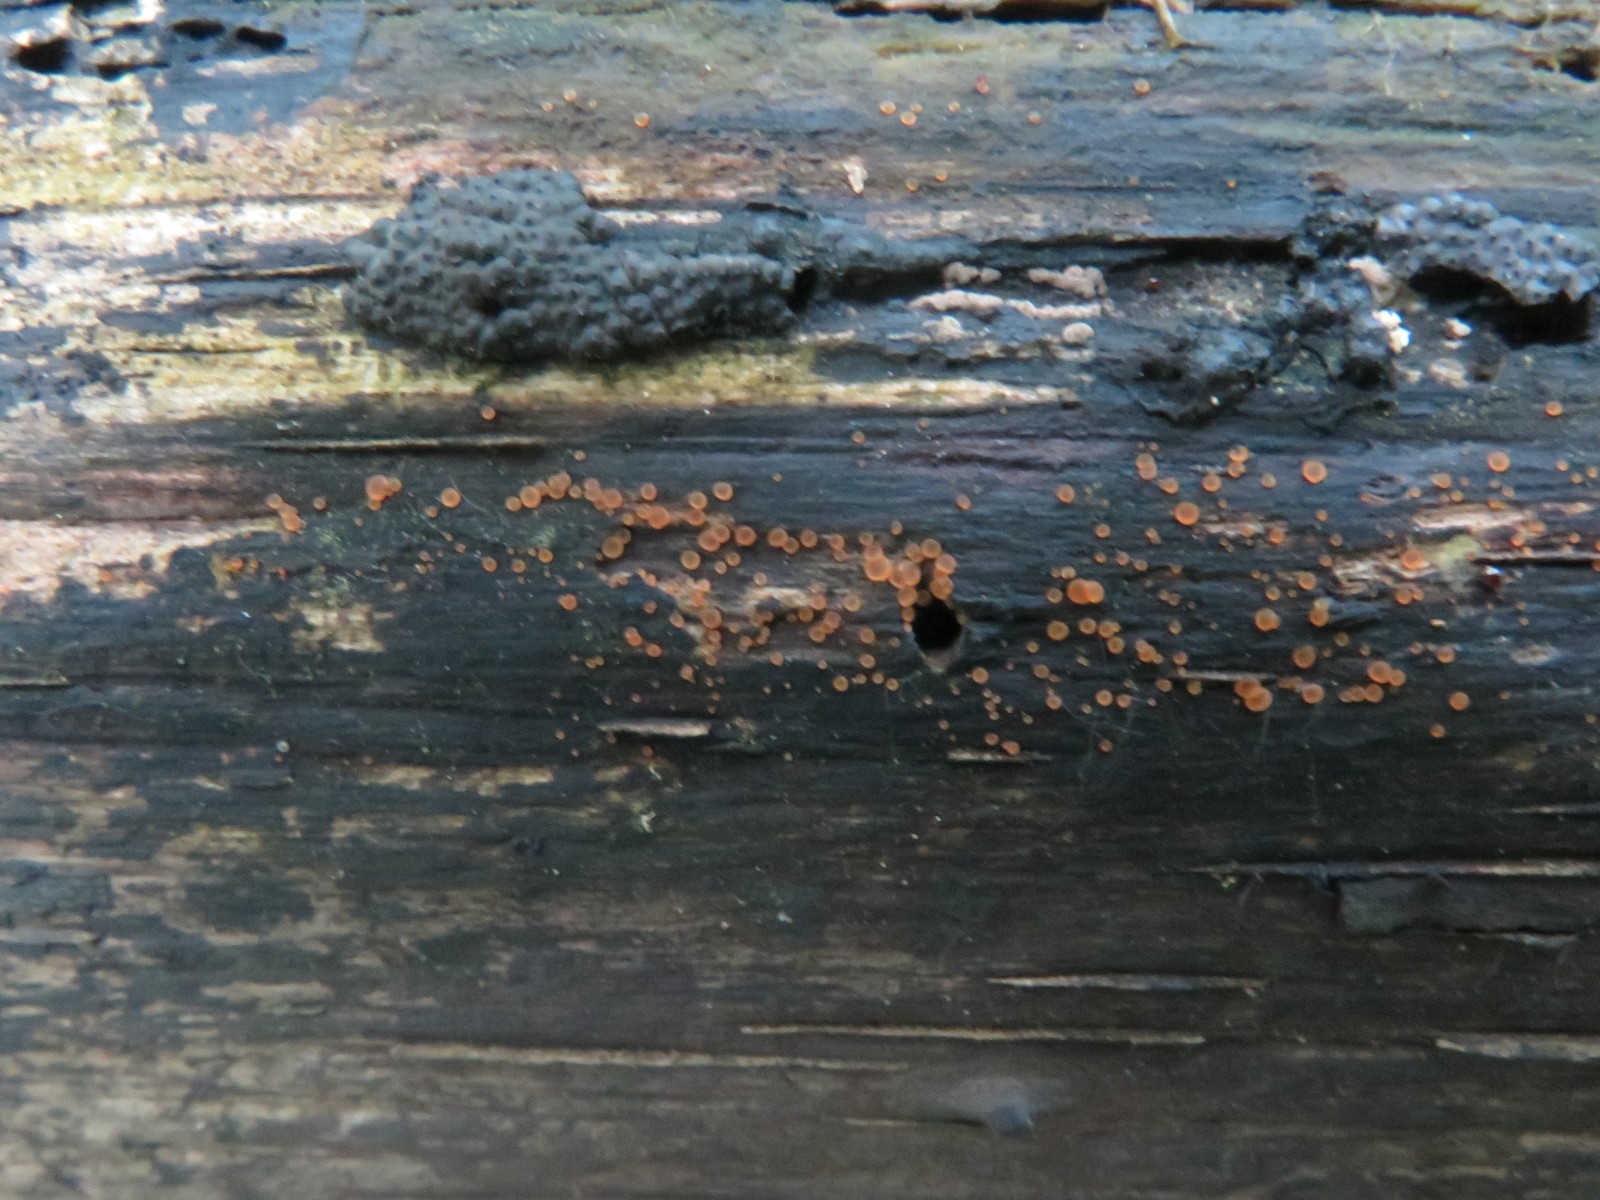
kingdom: Fungi
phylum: Ascomycota
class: Orbiliomycetes
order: Orbiliales
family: Orbiliaceae
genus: Orbilia
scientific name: Orbilia
